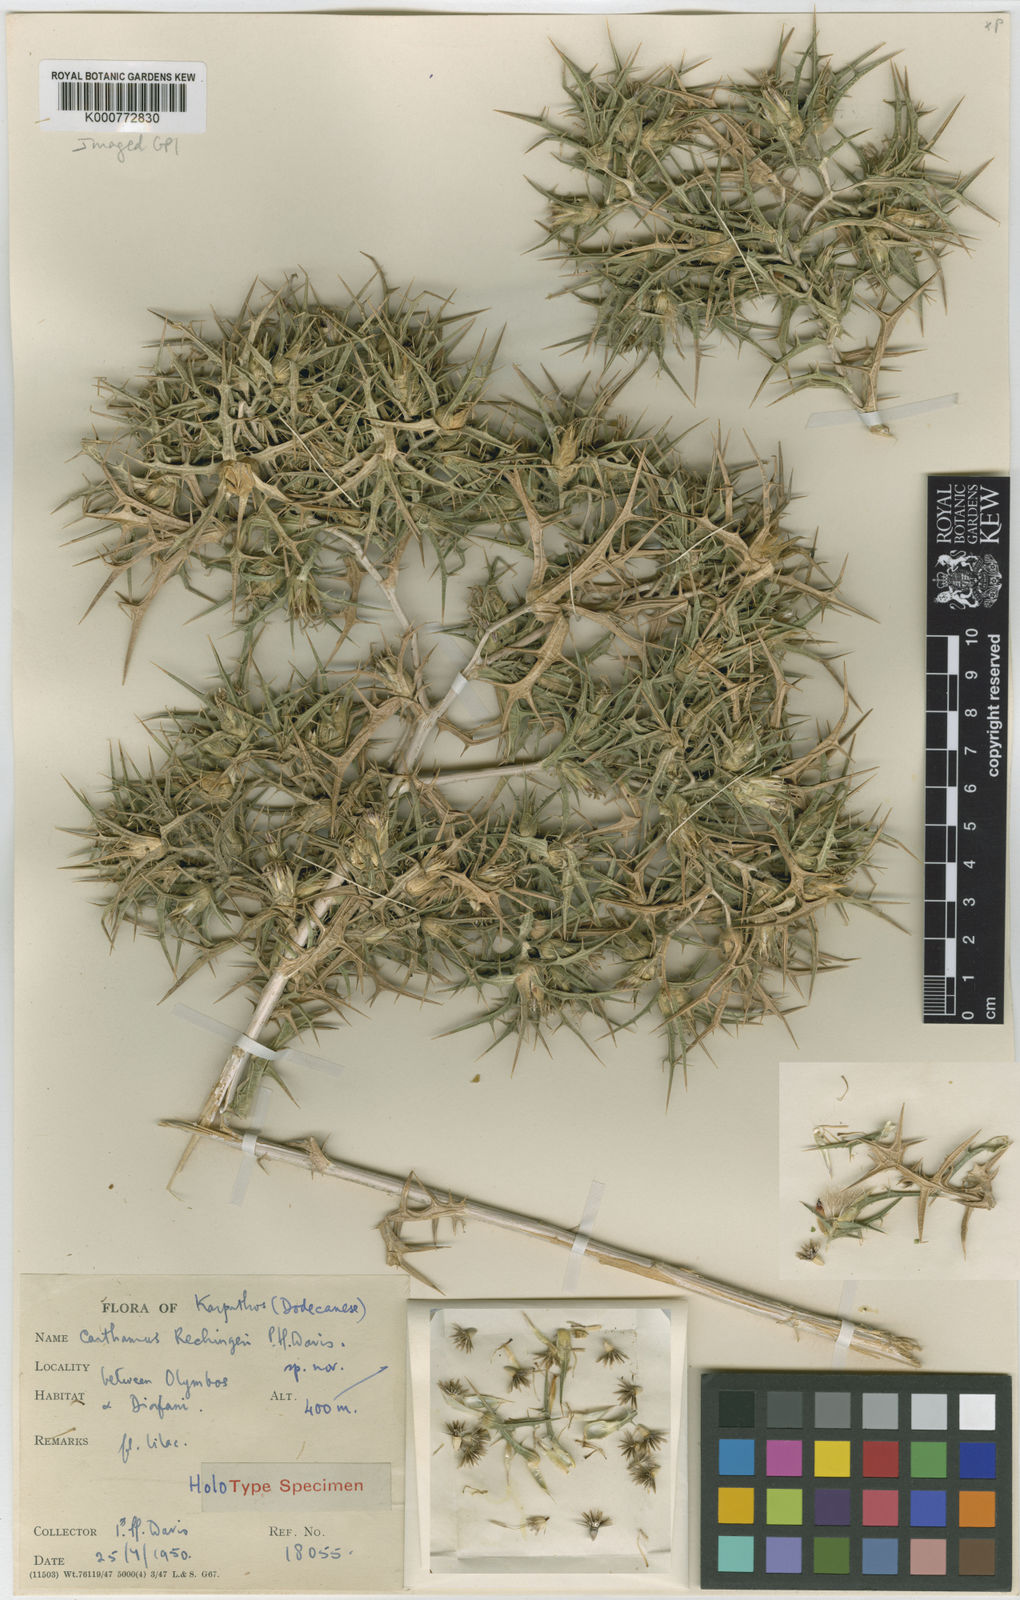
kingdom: Plantae
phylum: Tracheophyta
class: Magnoliopsida
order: Asterales
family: Asteraceae
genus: Carthamus
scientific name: Carthamus rechingeri
